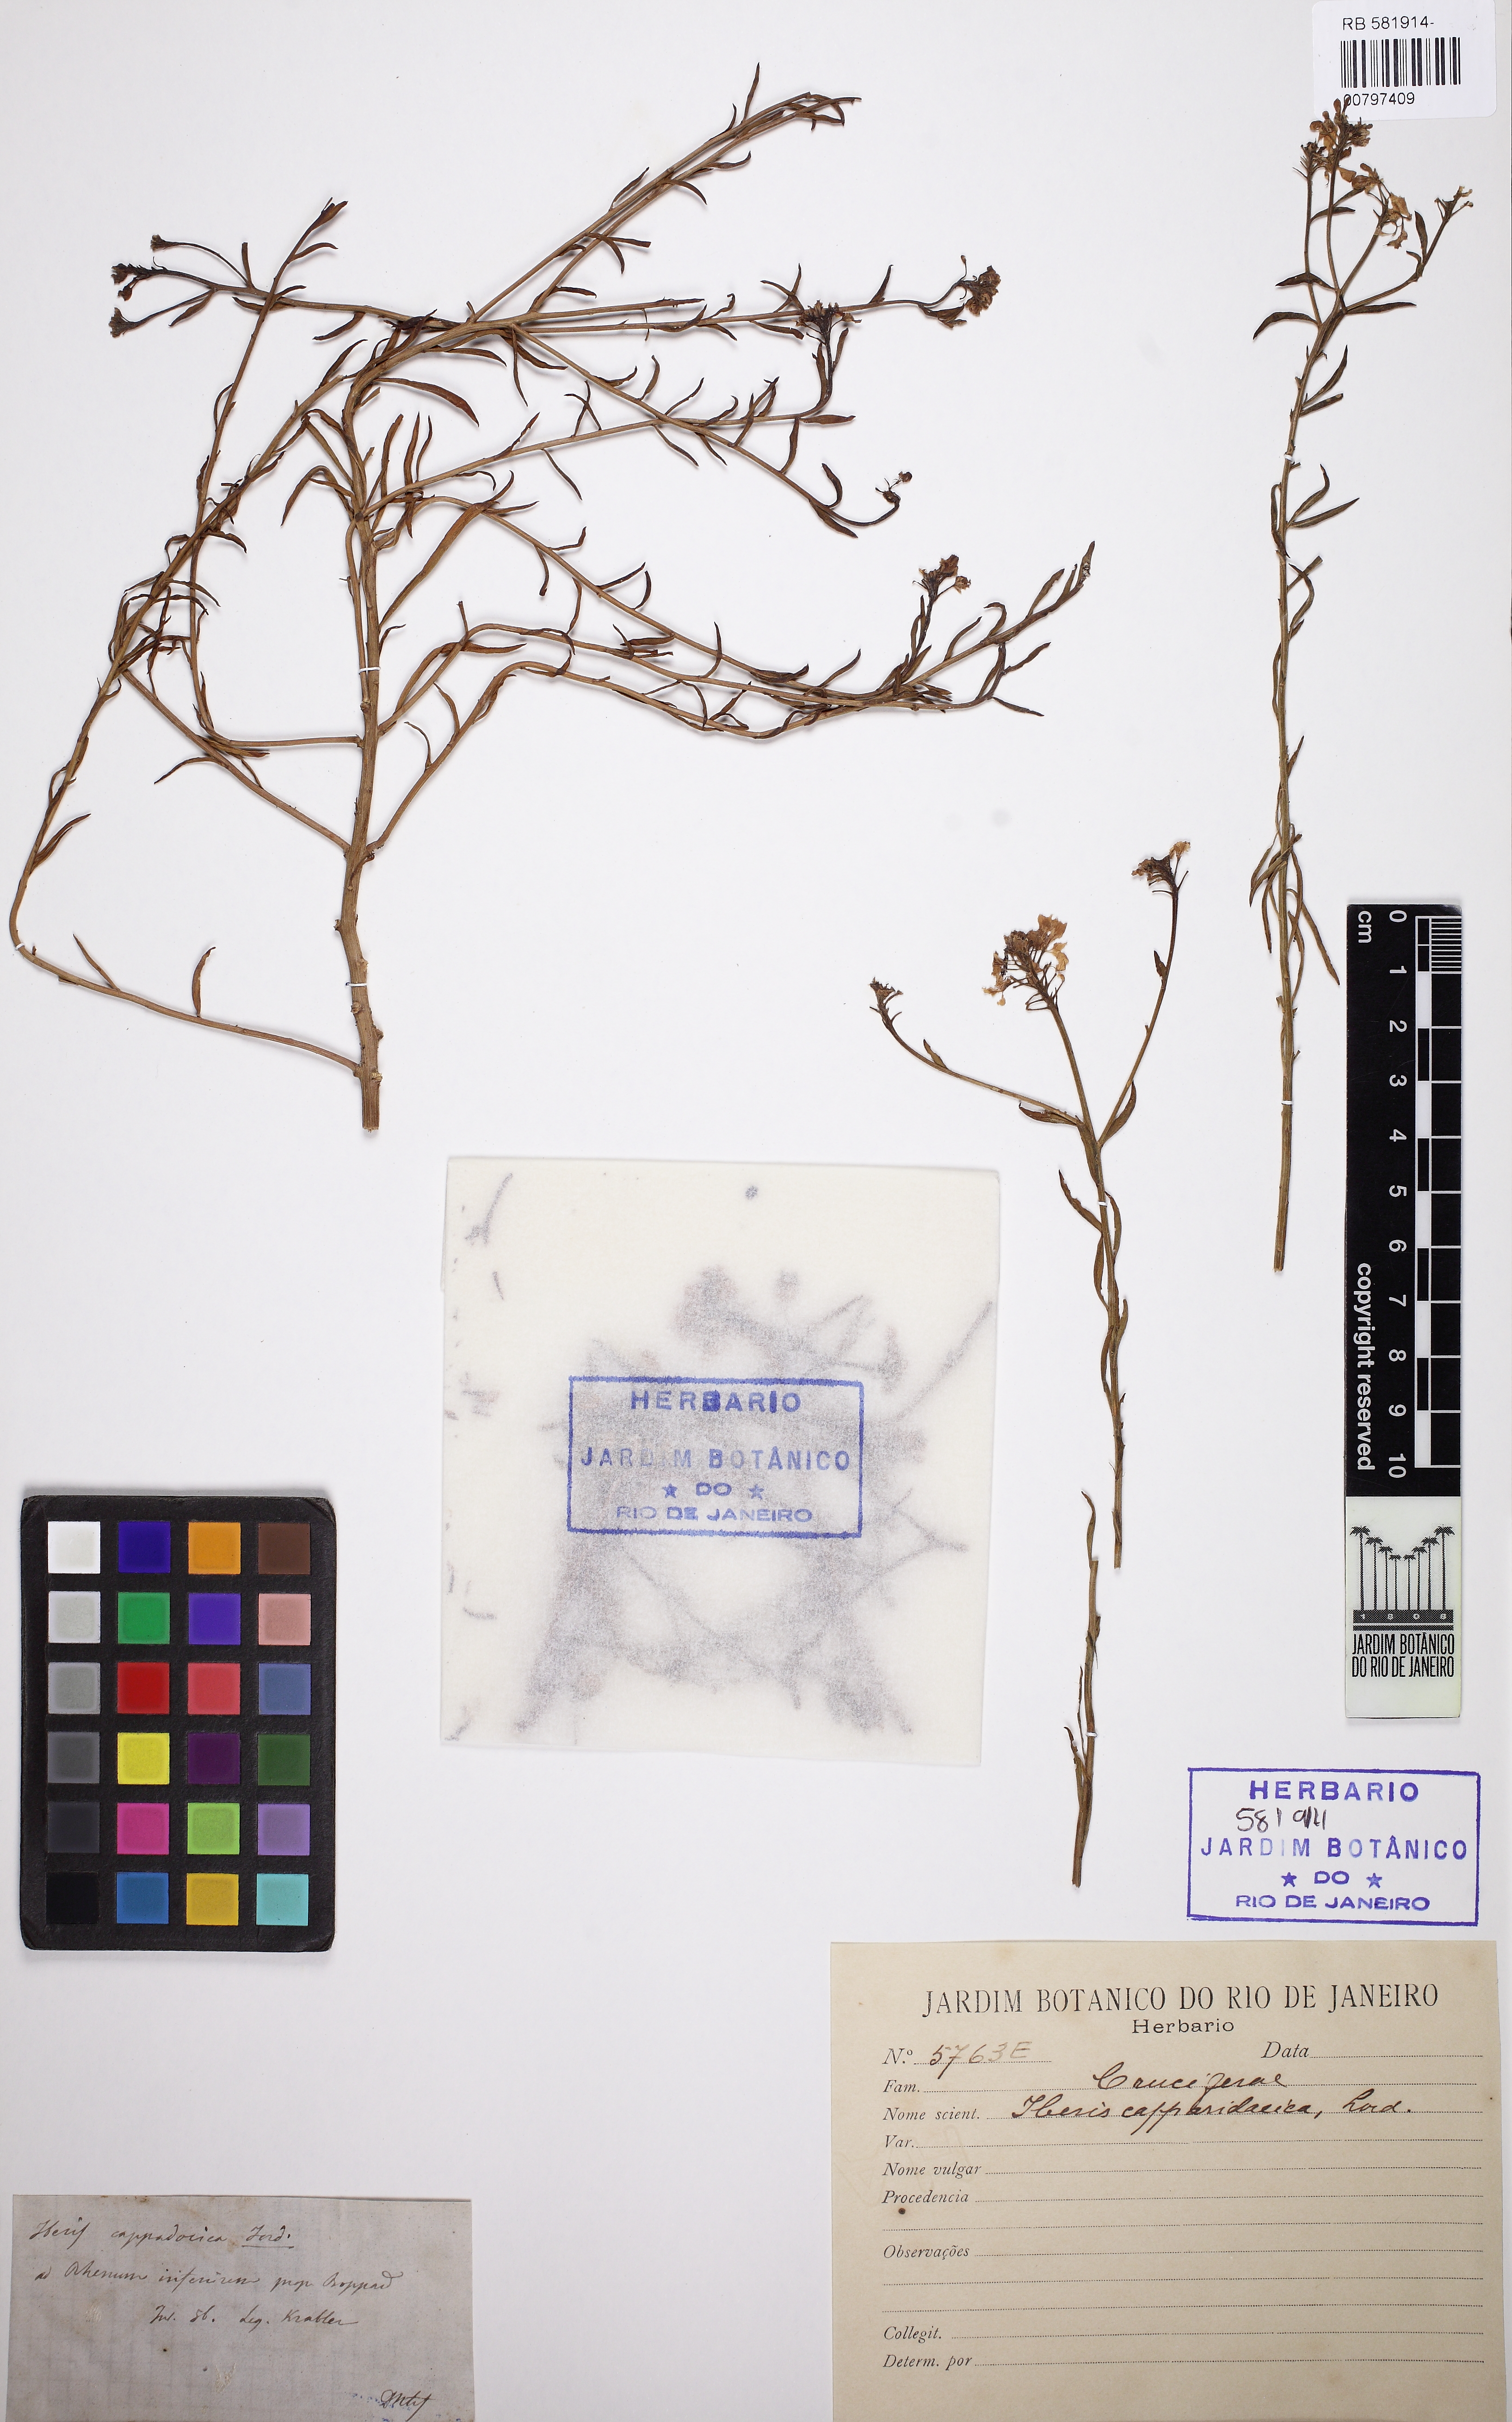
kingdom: Plantae
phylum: Tracheophyta
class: Magnoliopsida
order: Brassicales
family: Brassicaceae
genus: Bornmuellera
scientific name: Bornmuellera cappadocica
